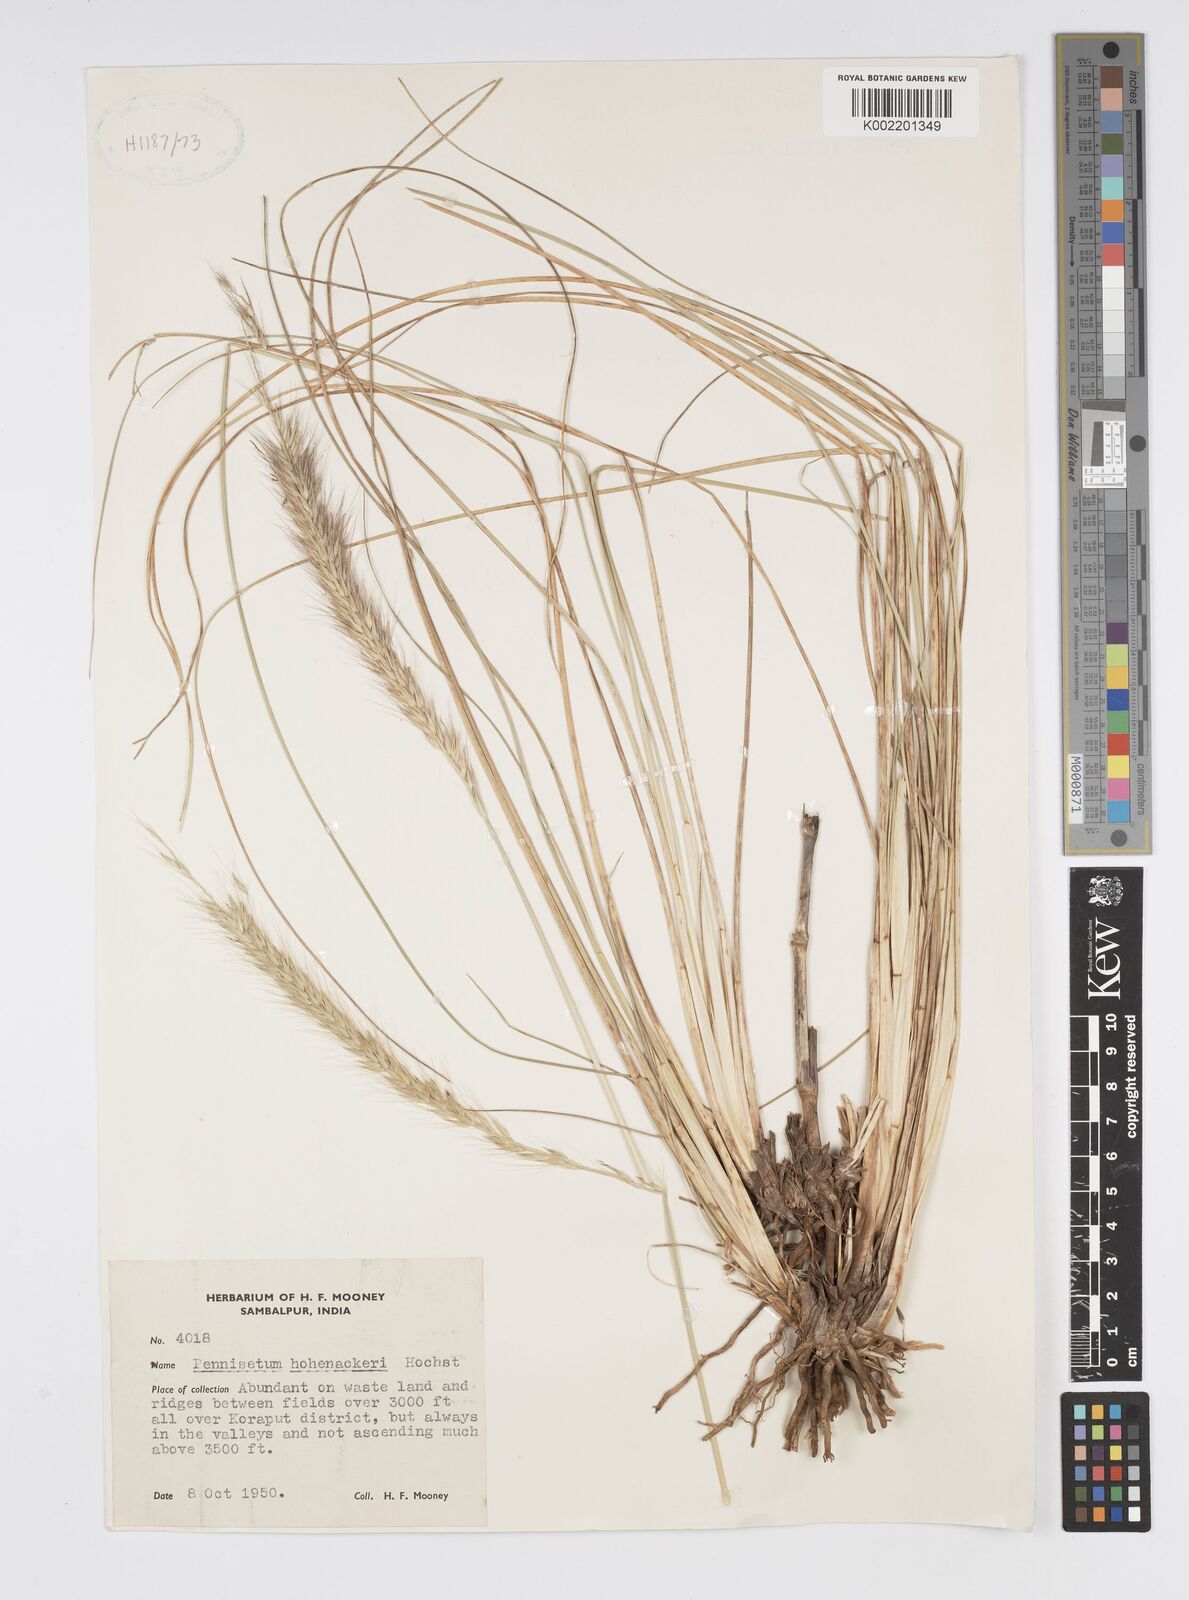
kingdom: Plantae
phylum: Tracheophyta
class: Liliopsida
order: Poales
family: Poaceae
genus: Cenchrus
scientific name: Cenchrus hohenackeri
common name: Moya grass
